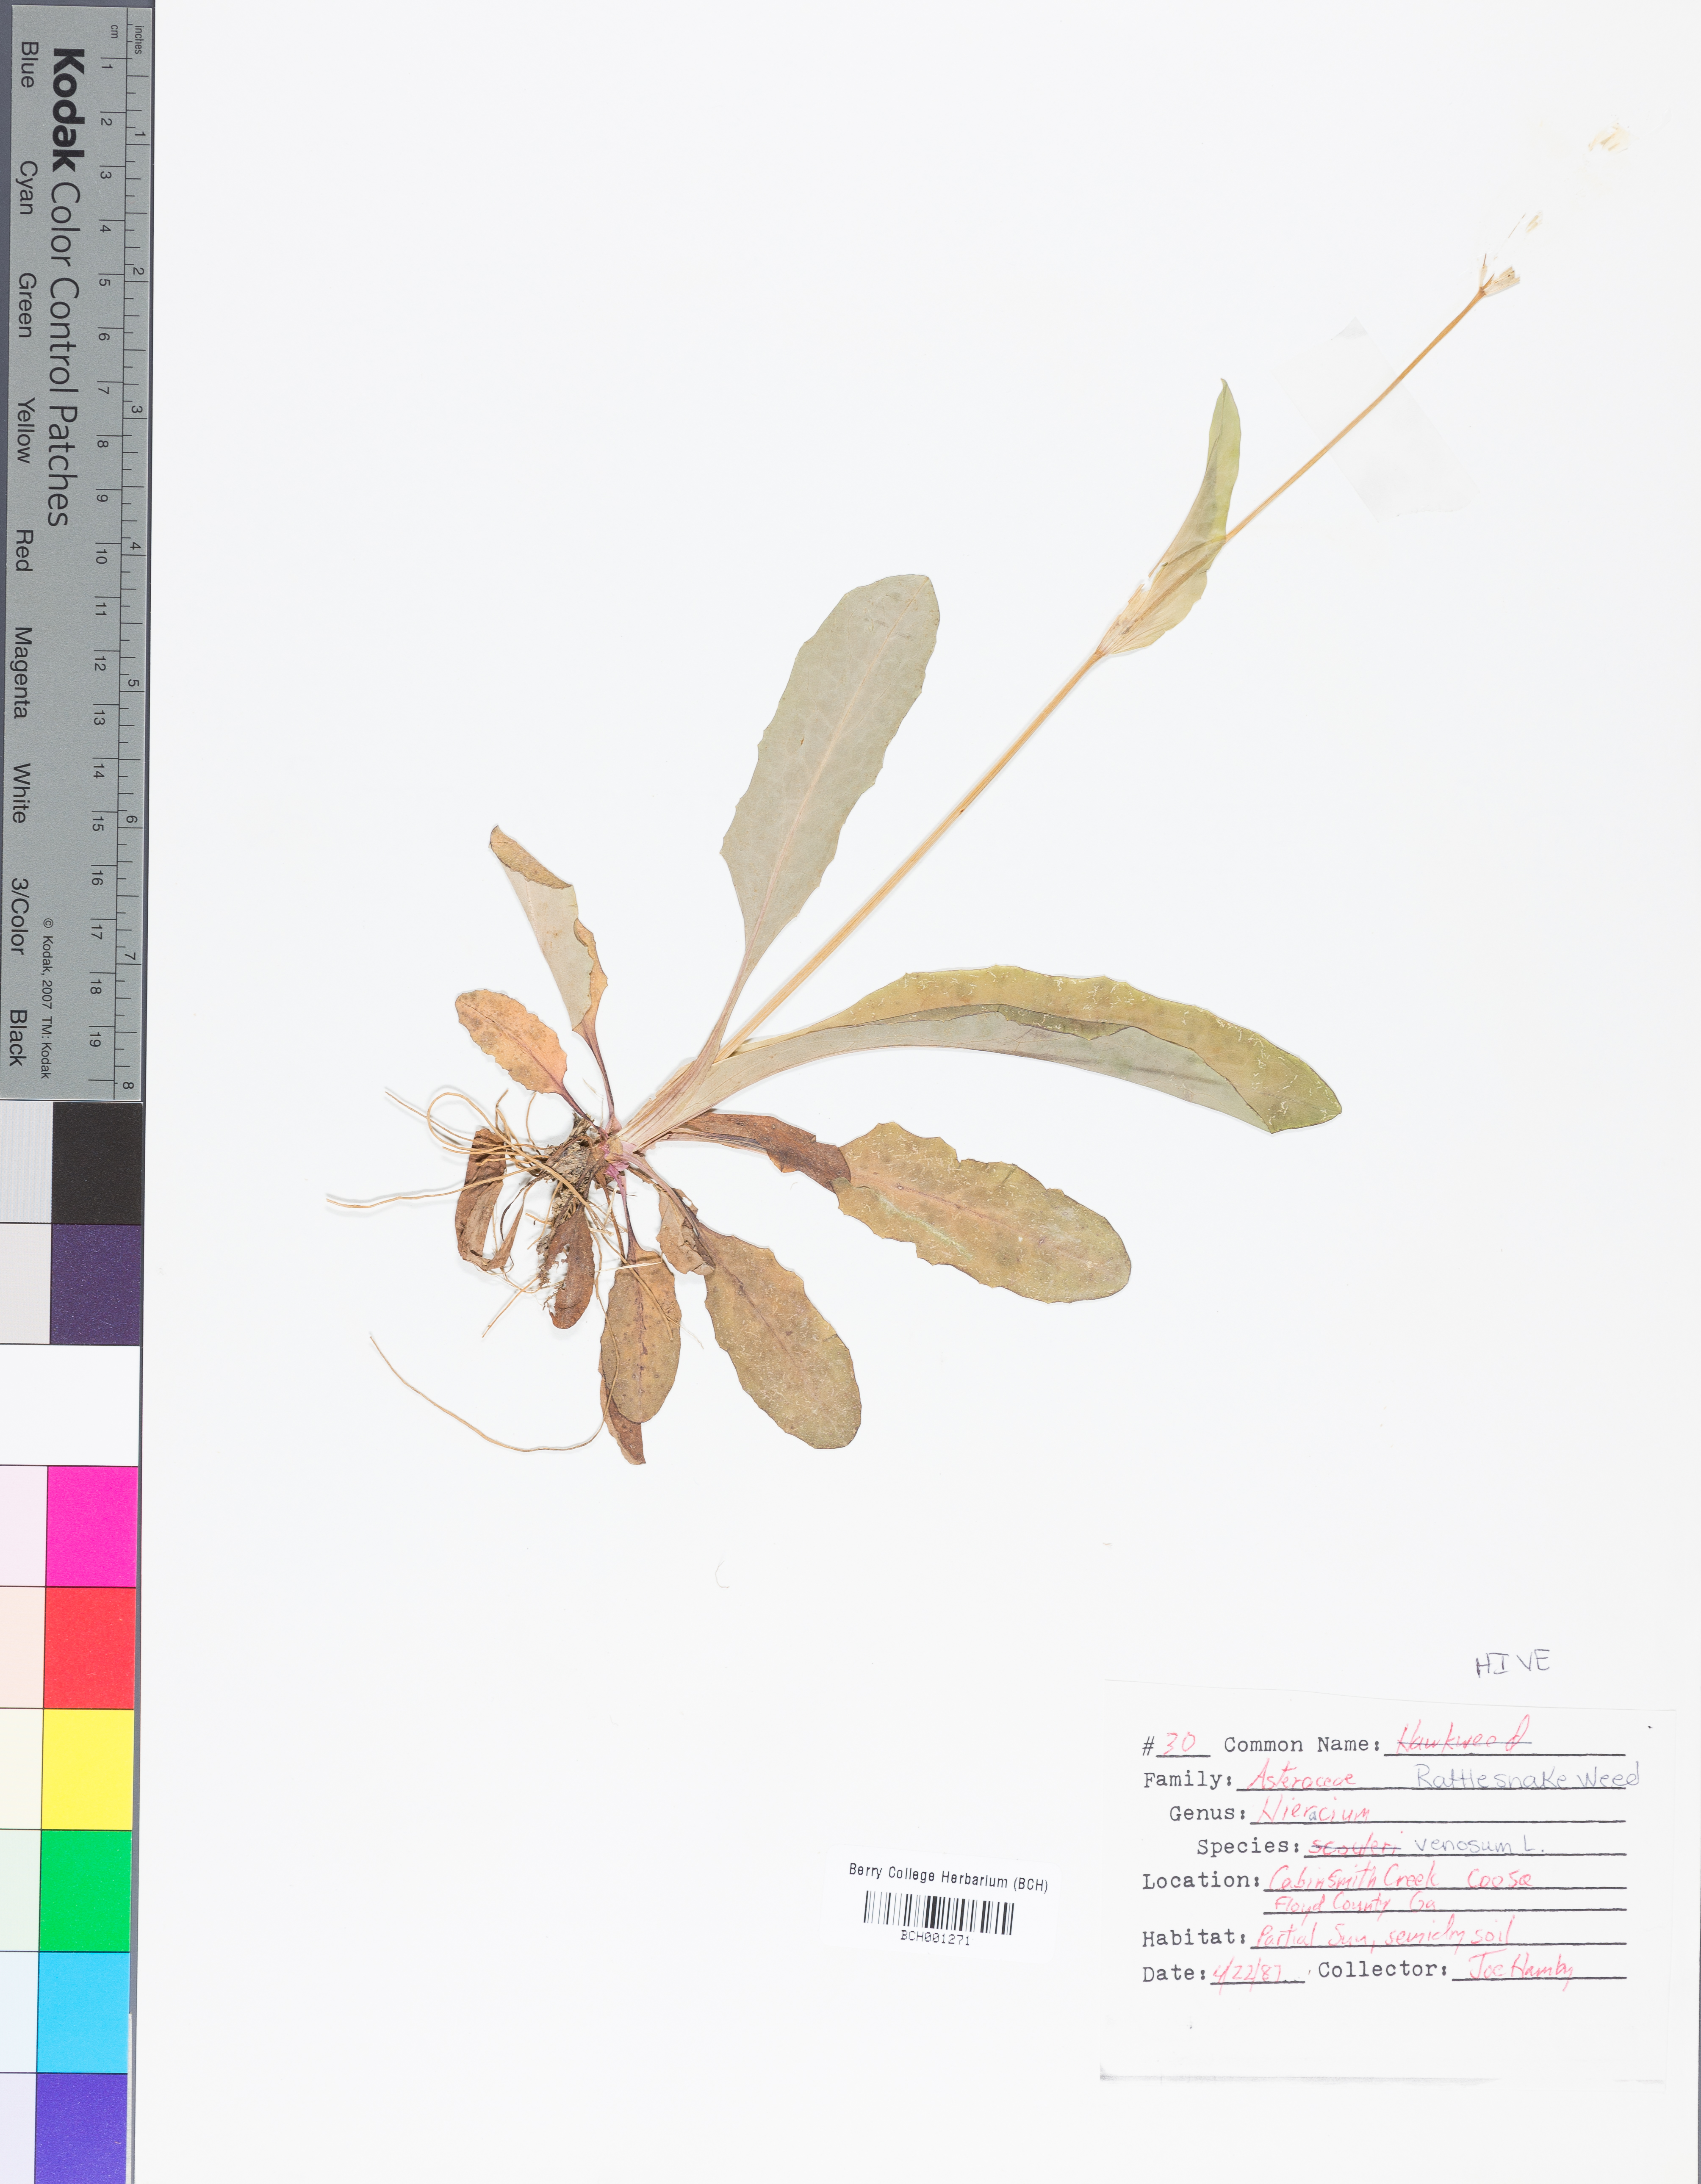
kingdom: Plantae
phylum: Tracheophyta
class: Magnoliopsida
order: Asterales
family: Asteraceae
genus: Hieracium
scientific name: Hieracium venosum
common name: Rattlesnake hawkweed
